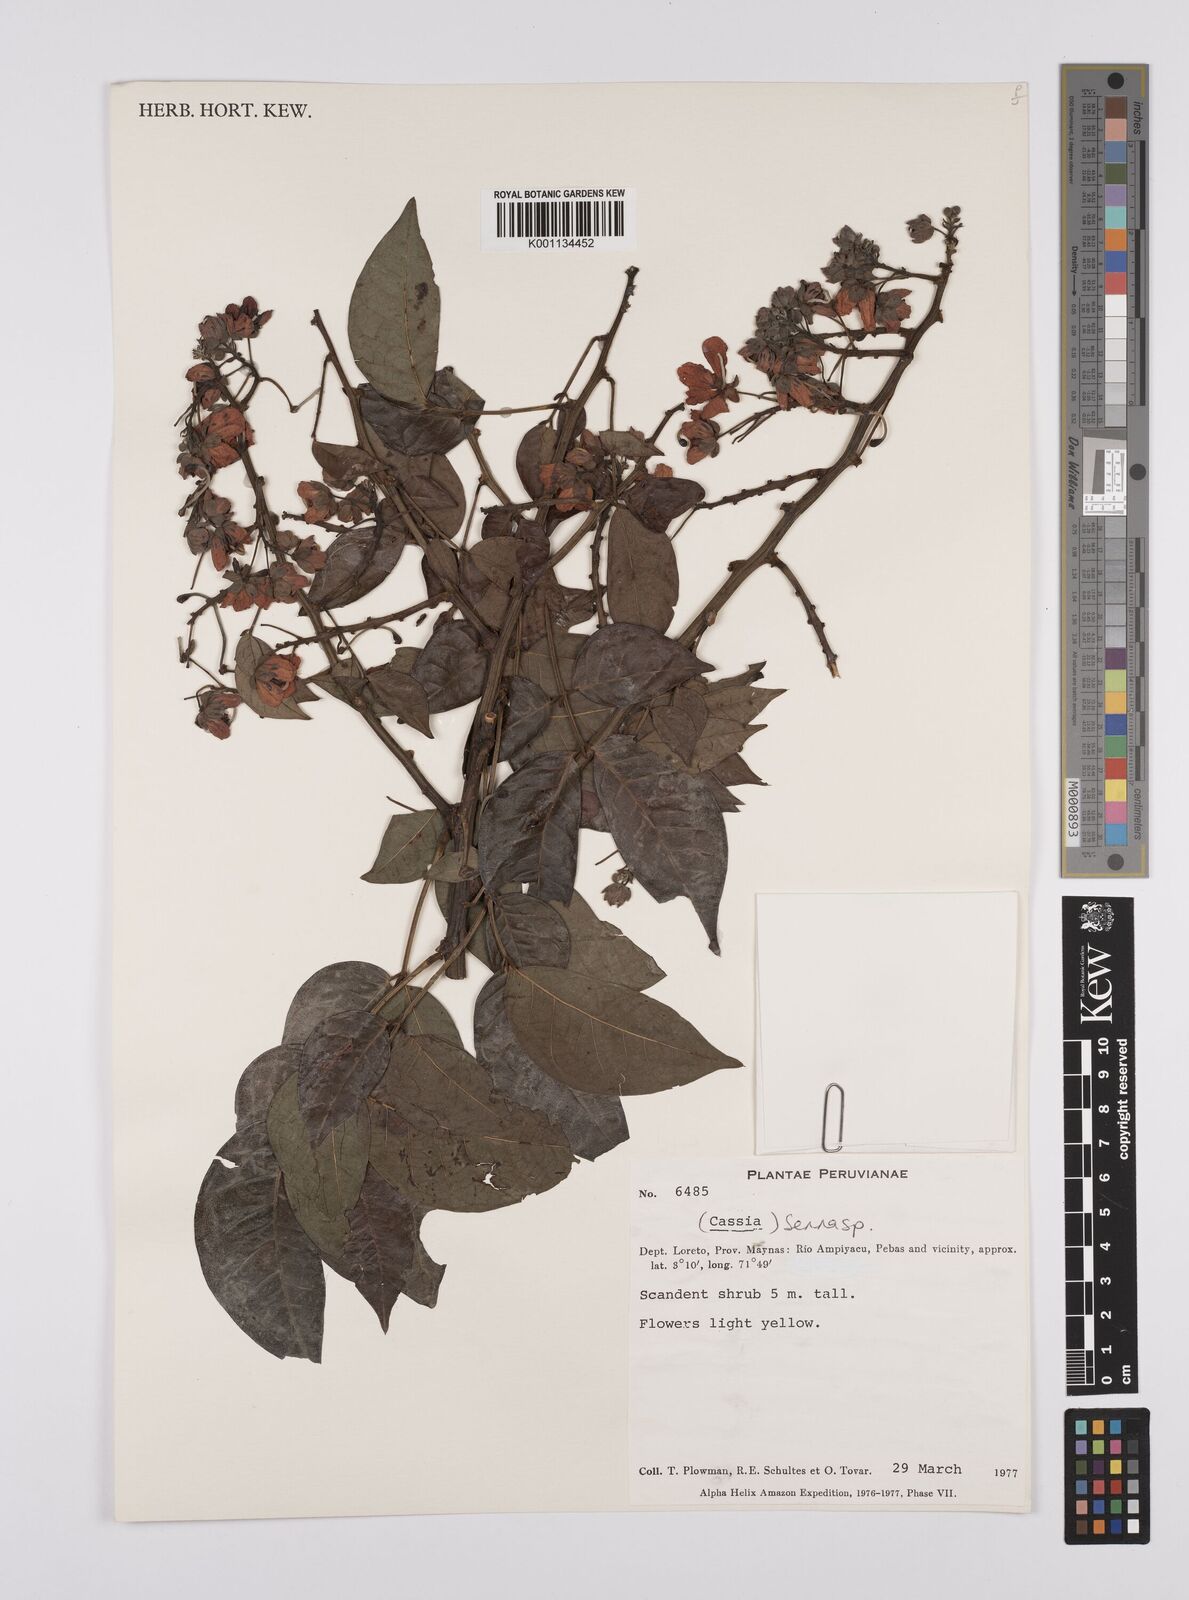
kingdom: Plantae
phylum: Tracheophyta
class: Magnoliopsida
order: Fabales
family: Fabaceae
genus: Senna
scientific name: Senna
